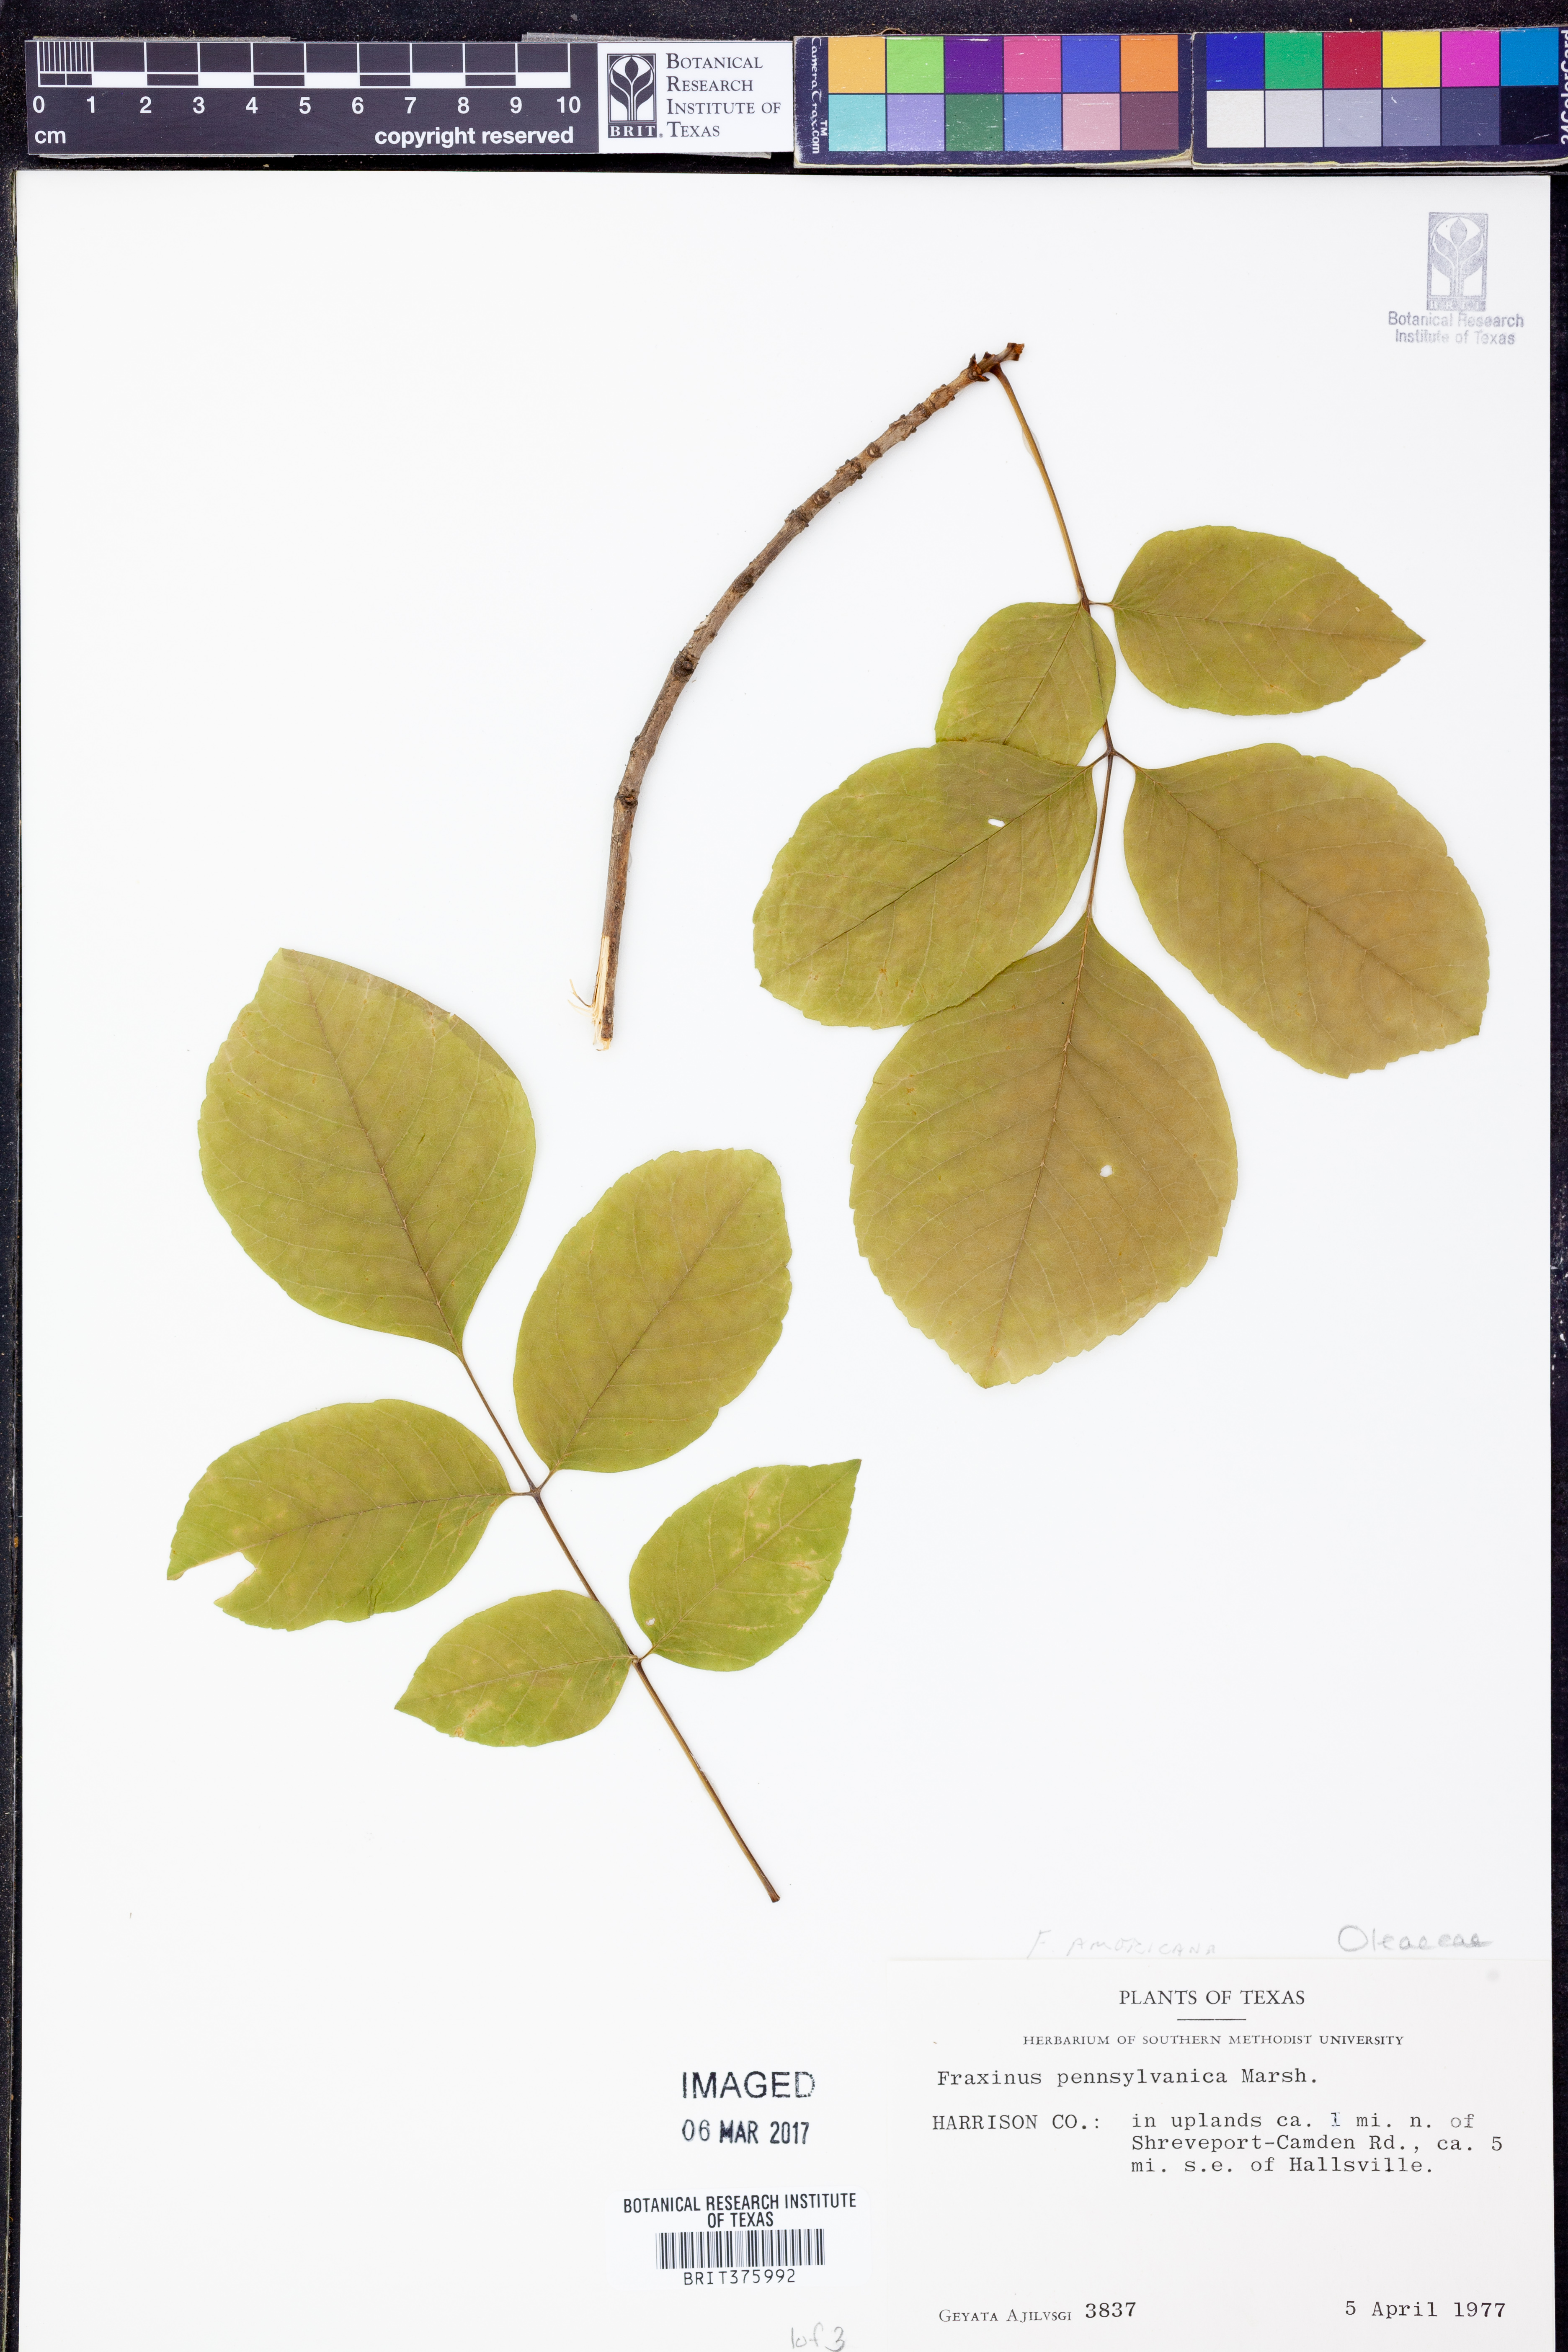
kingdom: Plantae
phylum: Tracheophyta
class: Magnoliopsida
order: Lamiales
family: Oleaceae
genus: Fraxinus
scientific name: Fraxinus pennsylvanica
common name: Green ash
